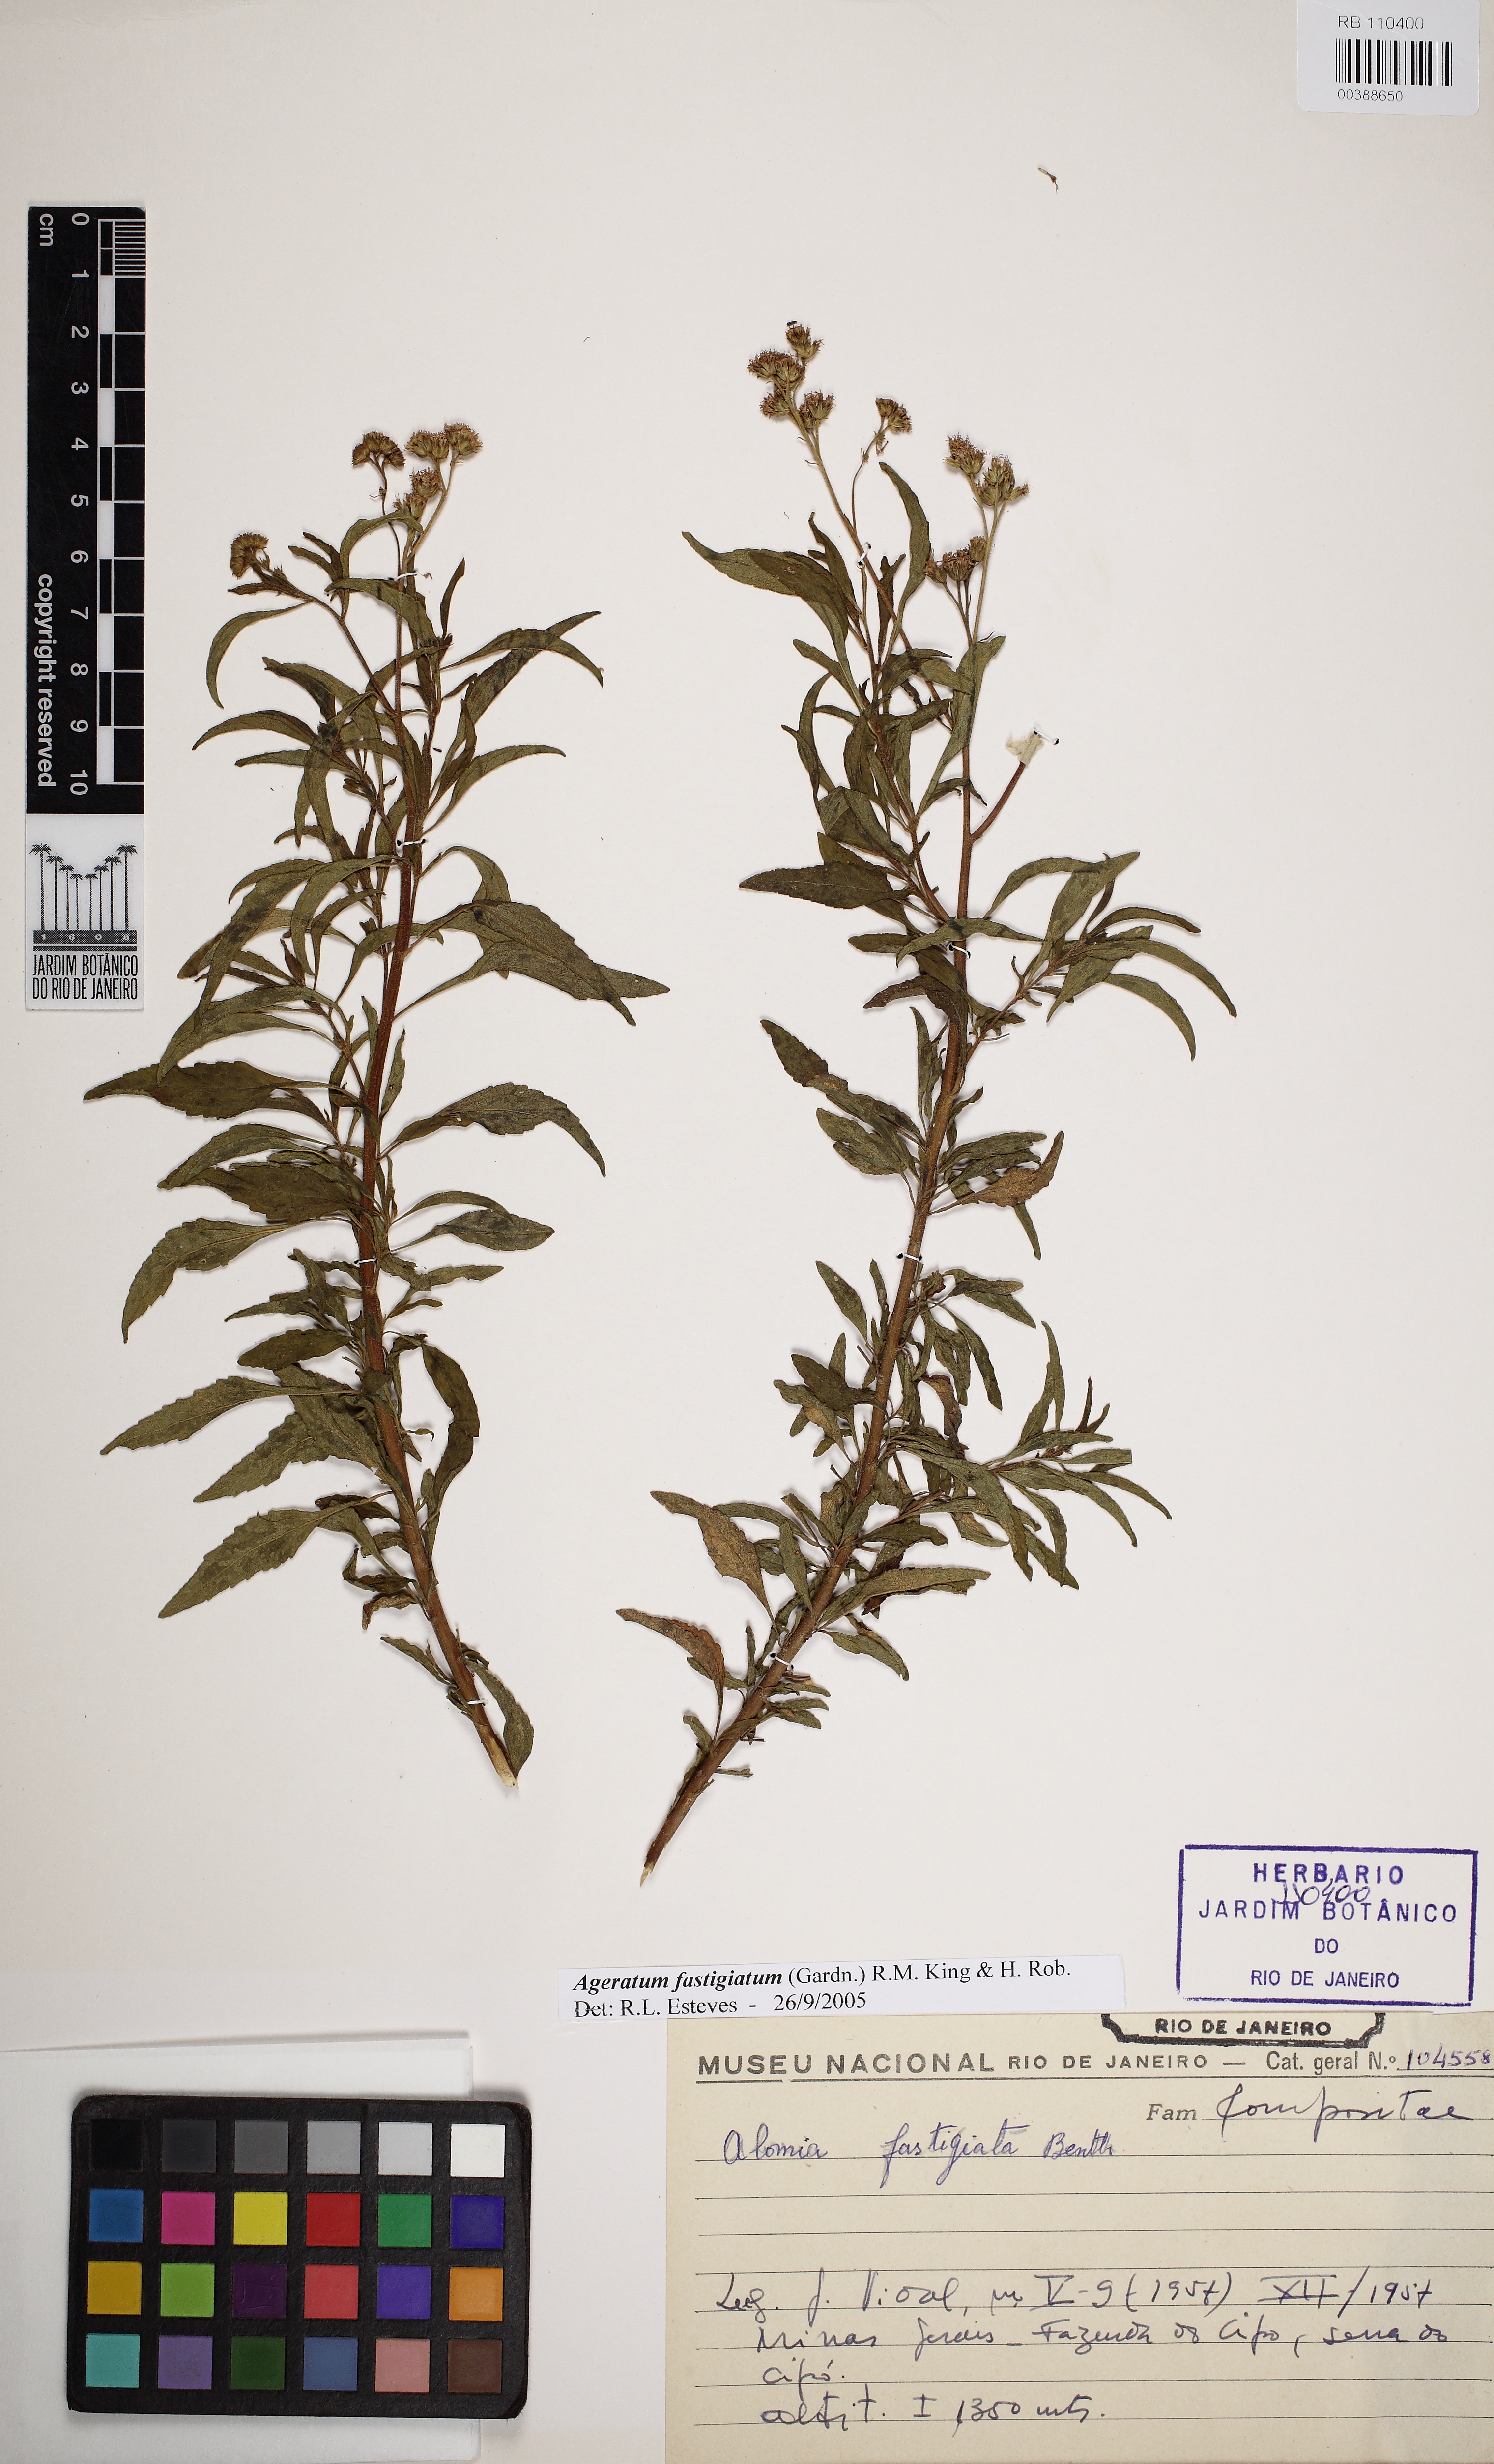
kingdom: Plantae
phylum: Tracheophyta
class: Magnoliopsida
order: Asterales
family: Asteraceae
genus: Ageratum
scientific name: Ageratum fastigiatum
